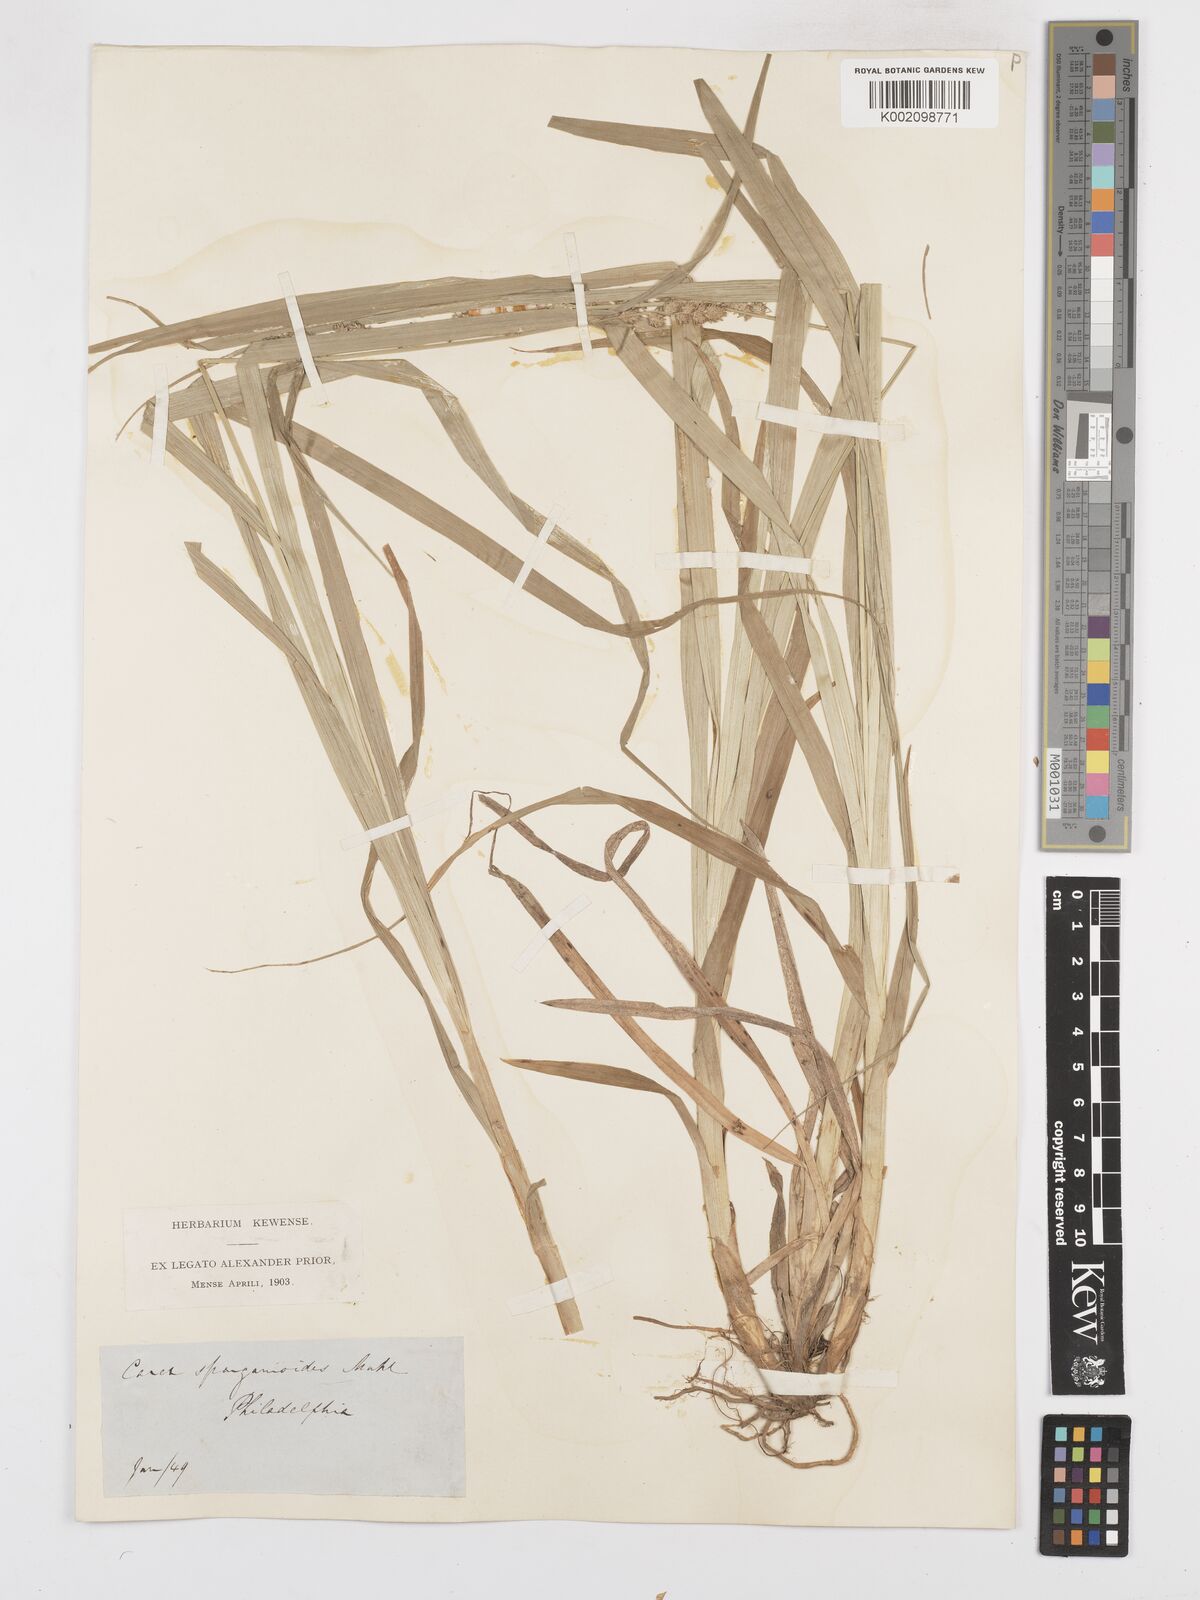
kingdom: Plantae
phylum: Tracheophyta
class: Liliopsida
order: Poales
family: Cyperaceae
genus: Carex
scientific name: Carex sparganioides
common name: Burreed sedge
